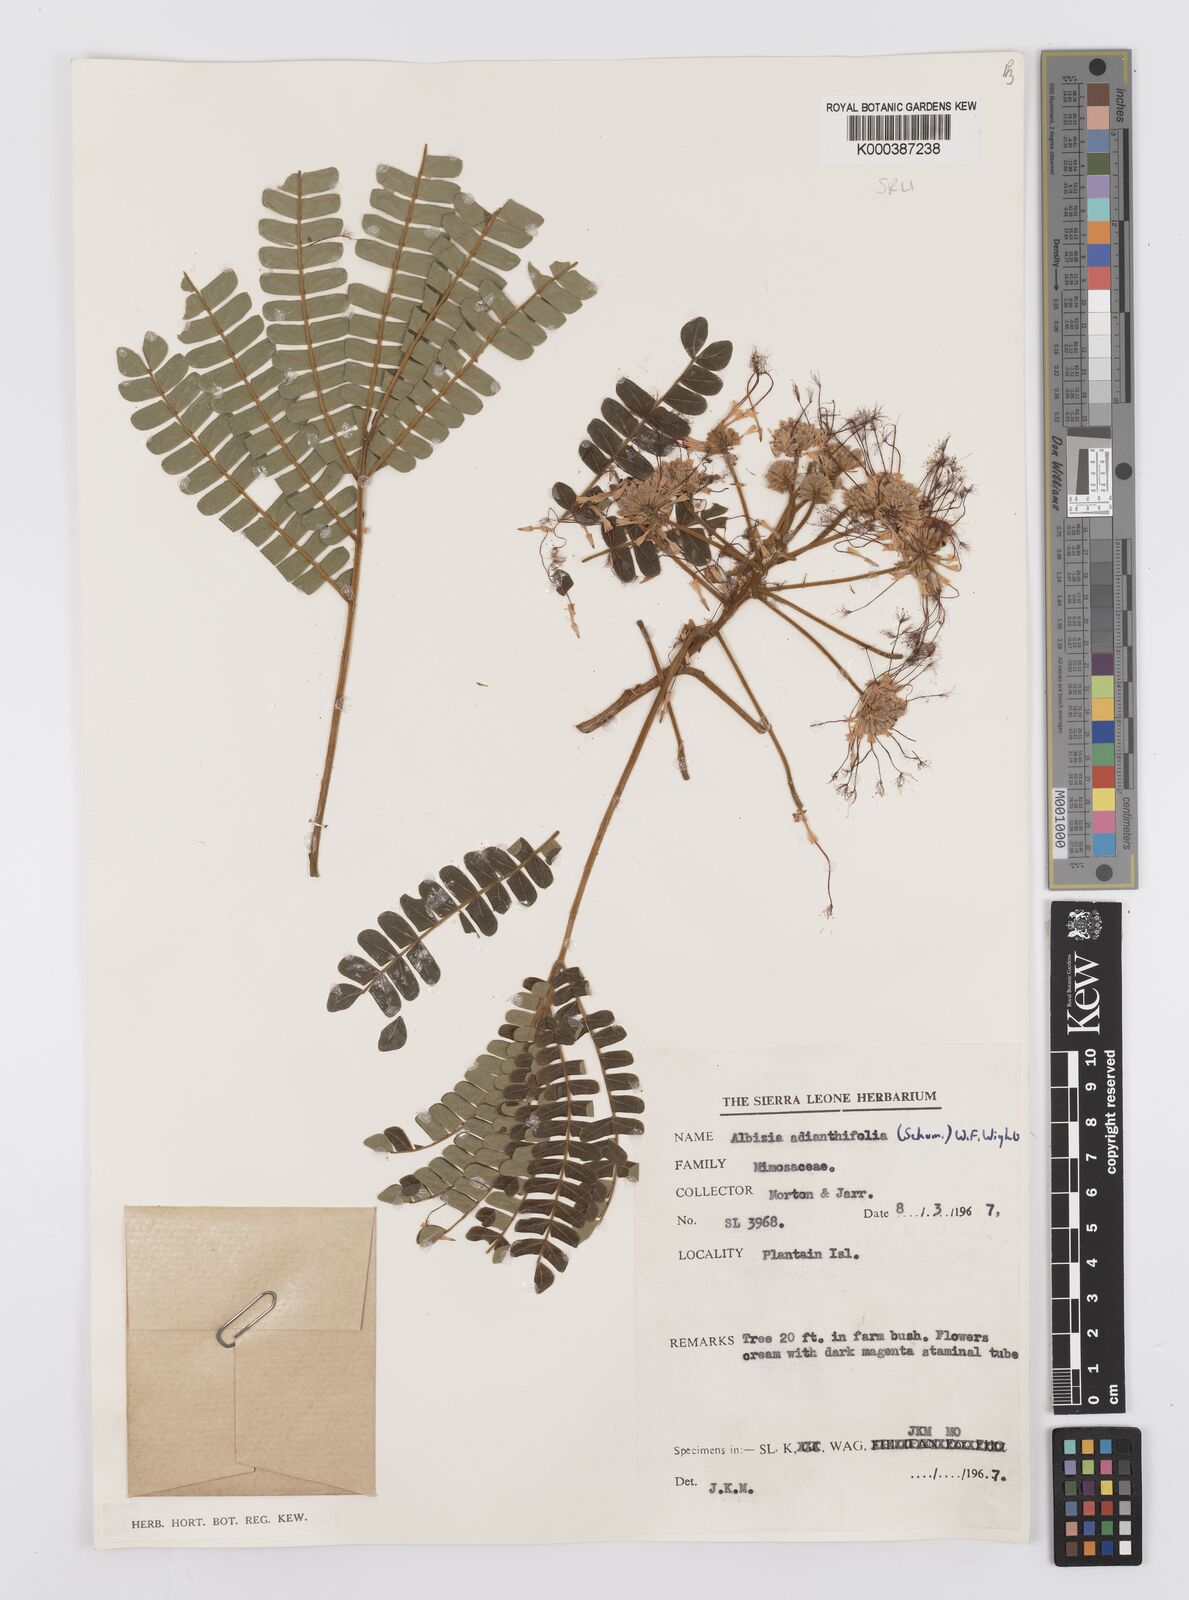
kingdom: Plantae
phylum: Tracheophyta
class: Magnoliopsida
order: Fabales
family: Fabaceae
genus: Albizia
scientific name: Albizia adianthifolia
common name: West african albizia
